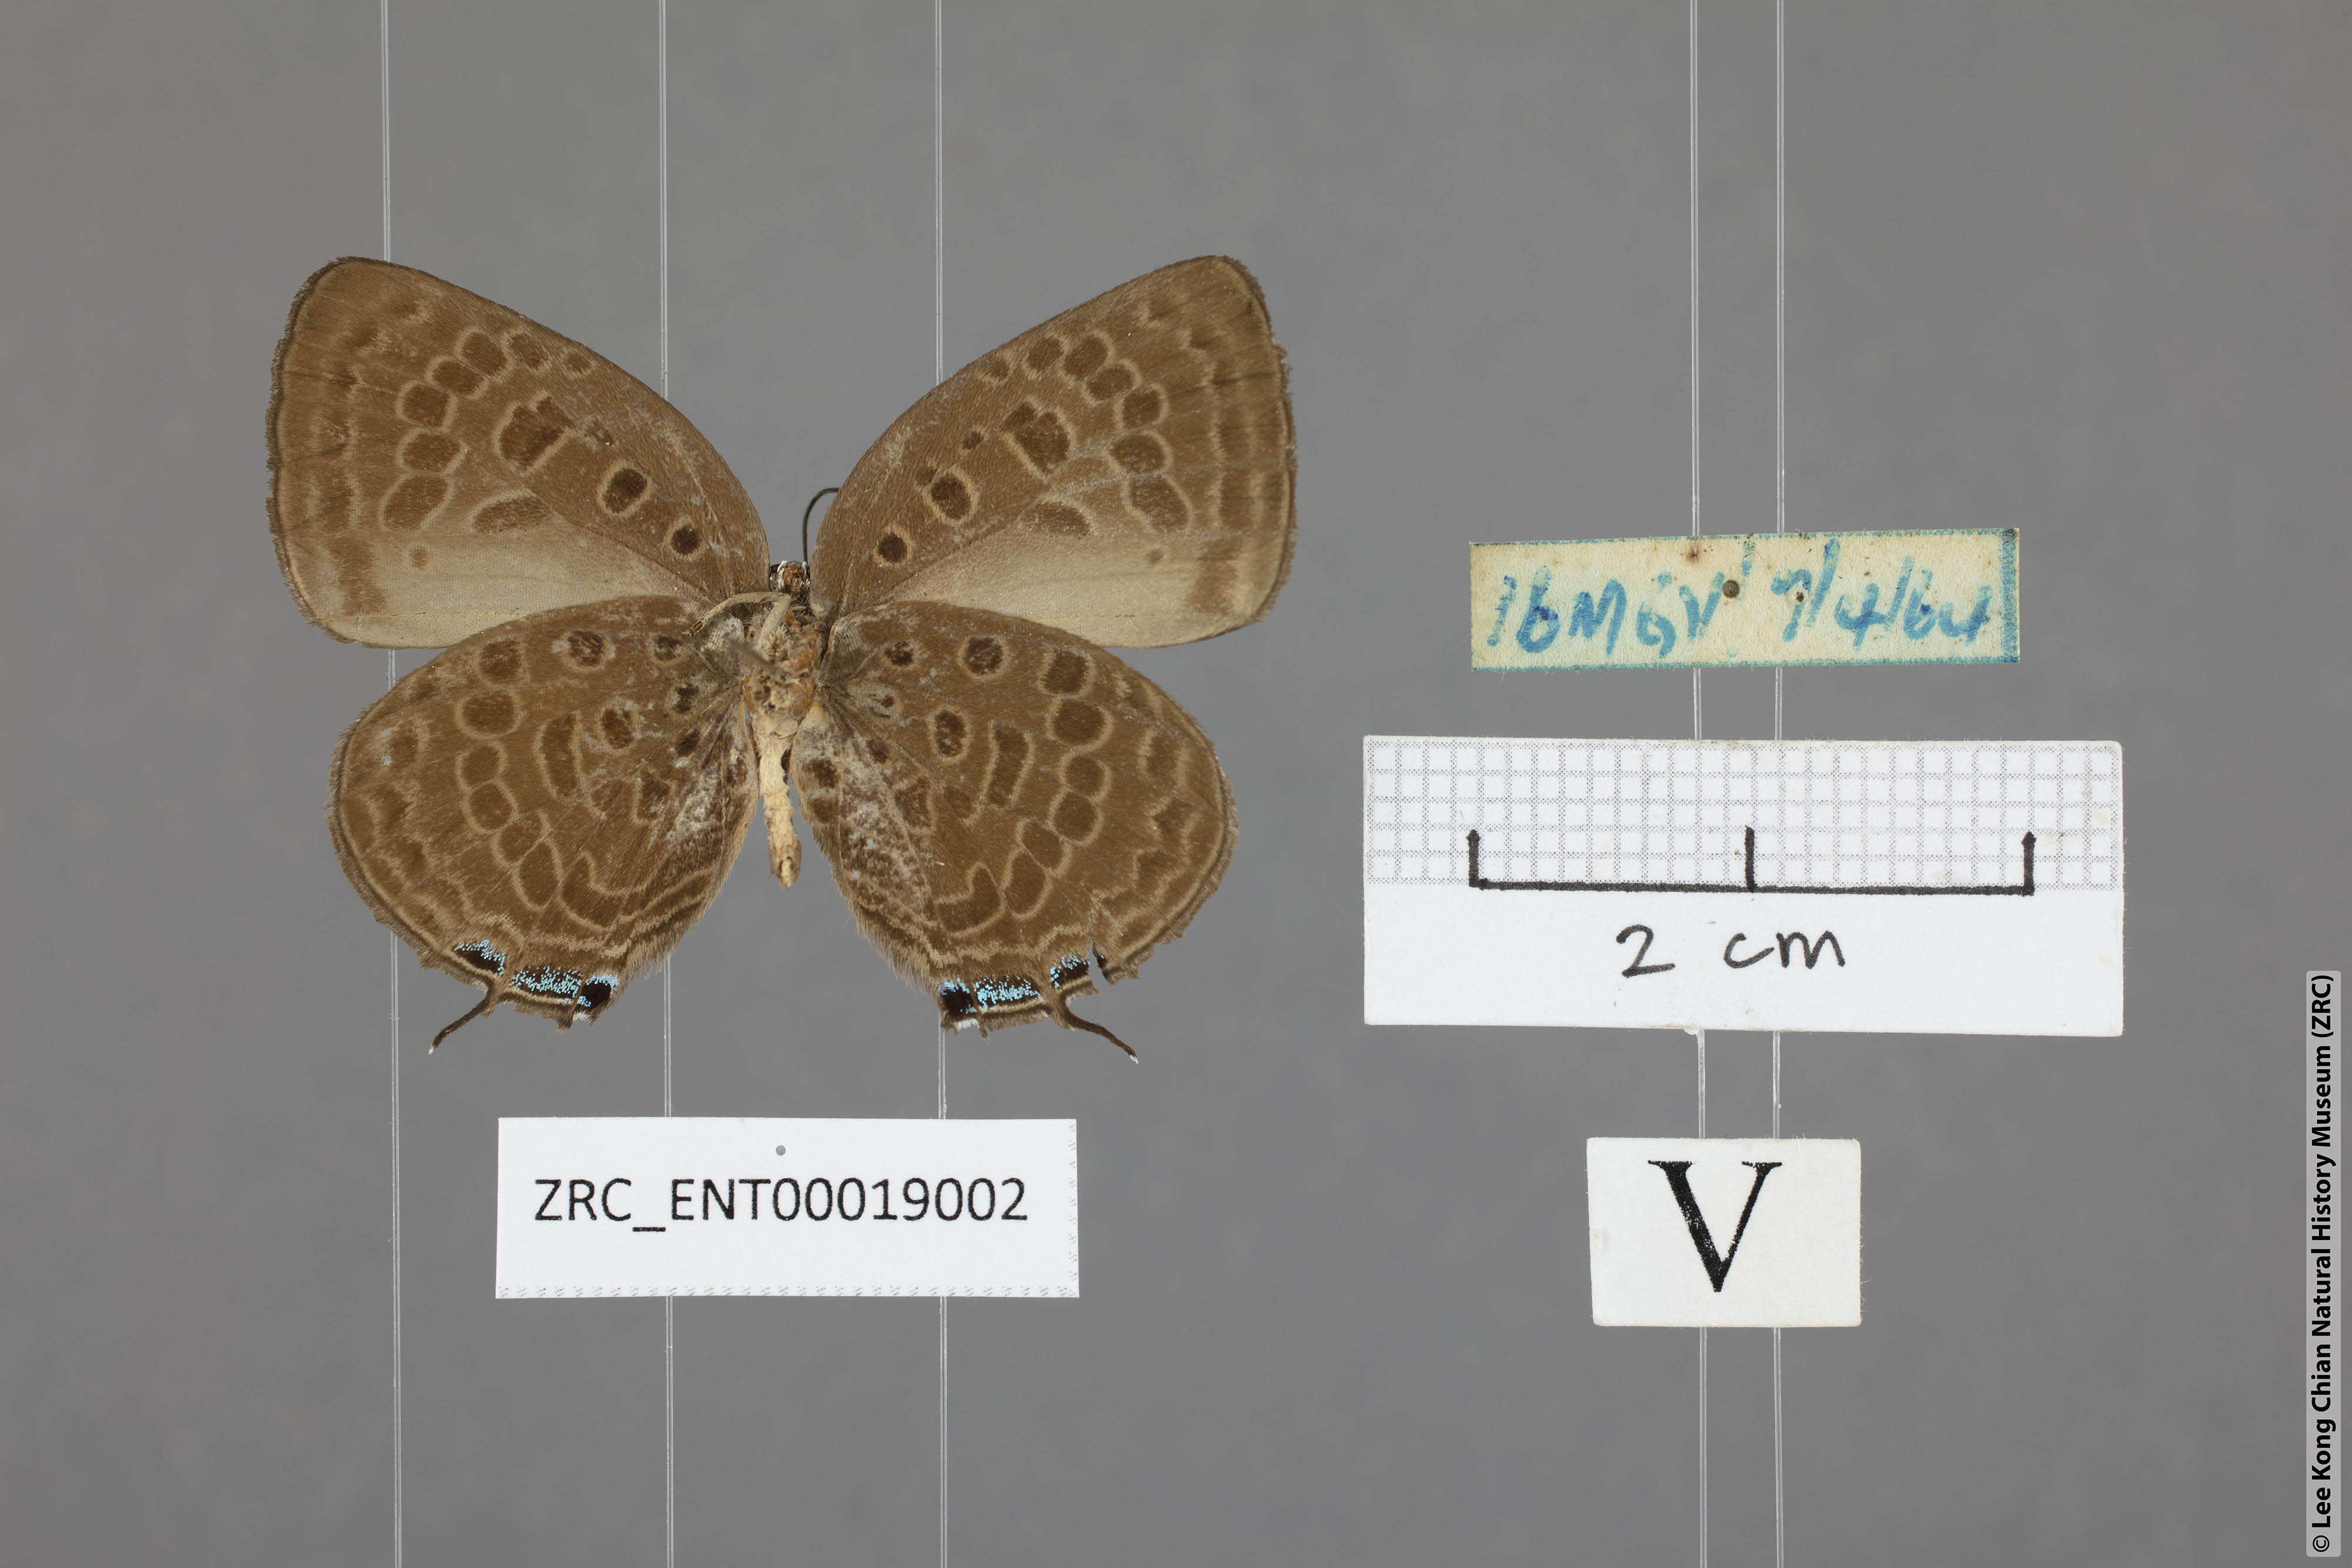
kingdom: Animalia
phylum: Arthropoda
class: Insecta
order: Lepidoptera
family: Lycaenidae
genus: Arhopala
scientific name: Arhopala aedias
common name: Large metallic oakblue
